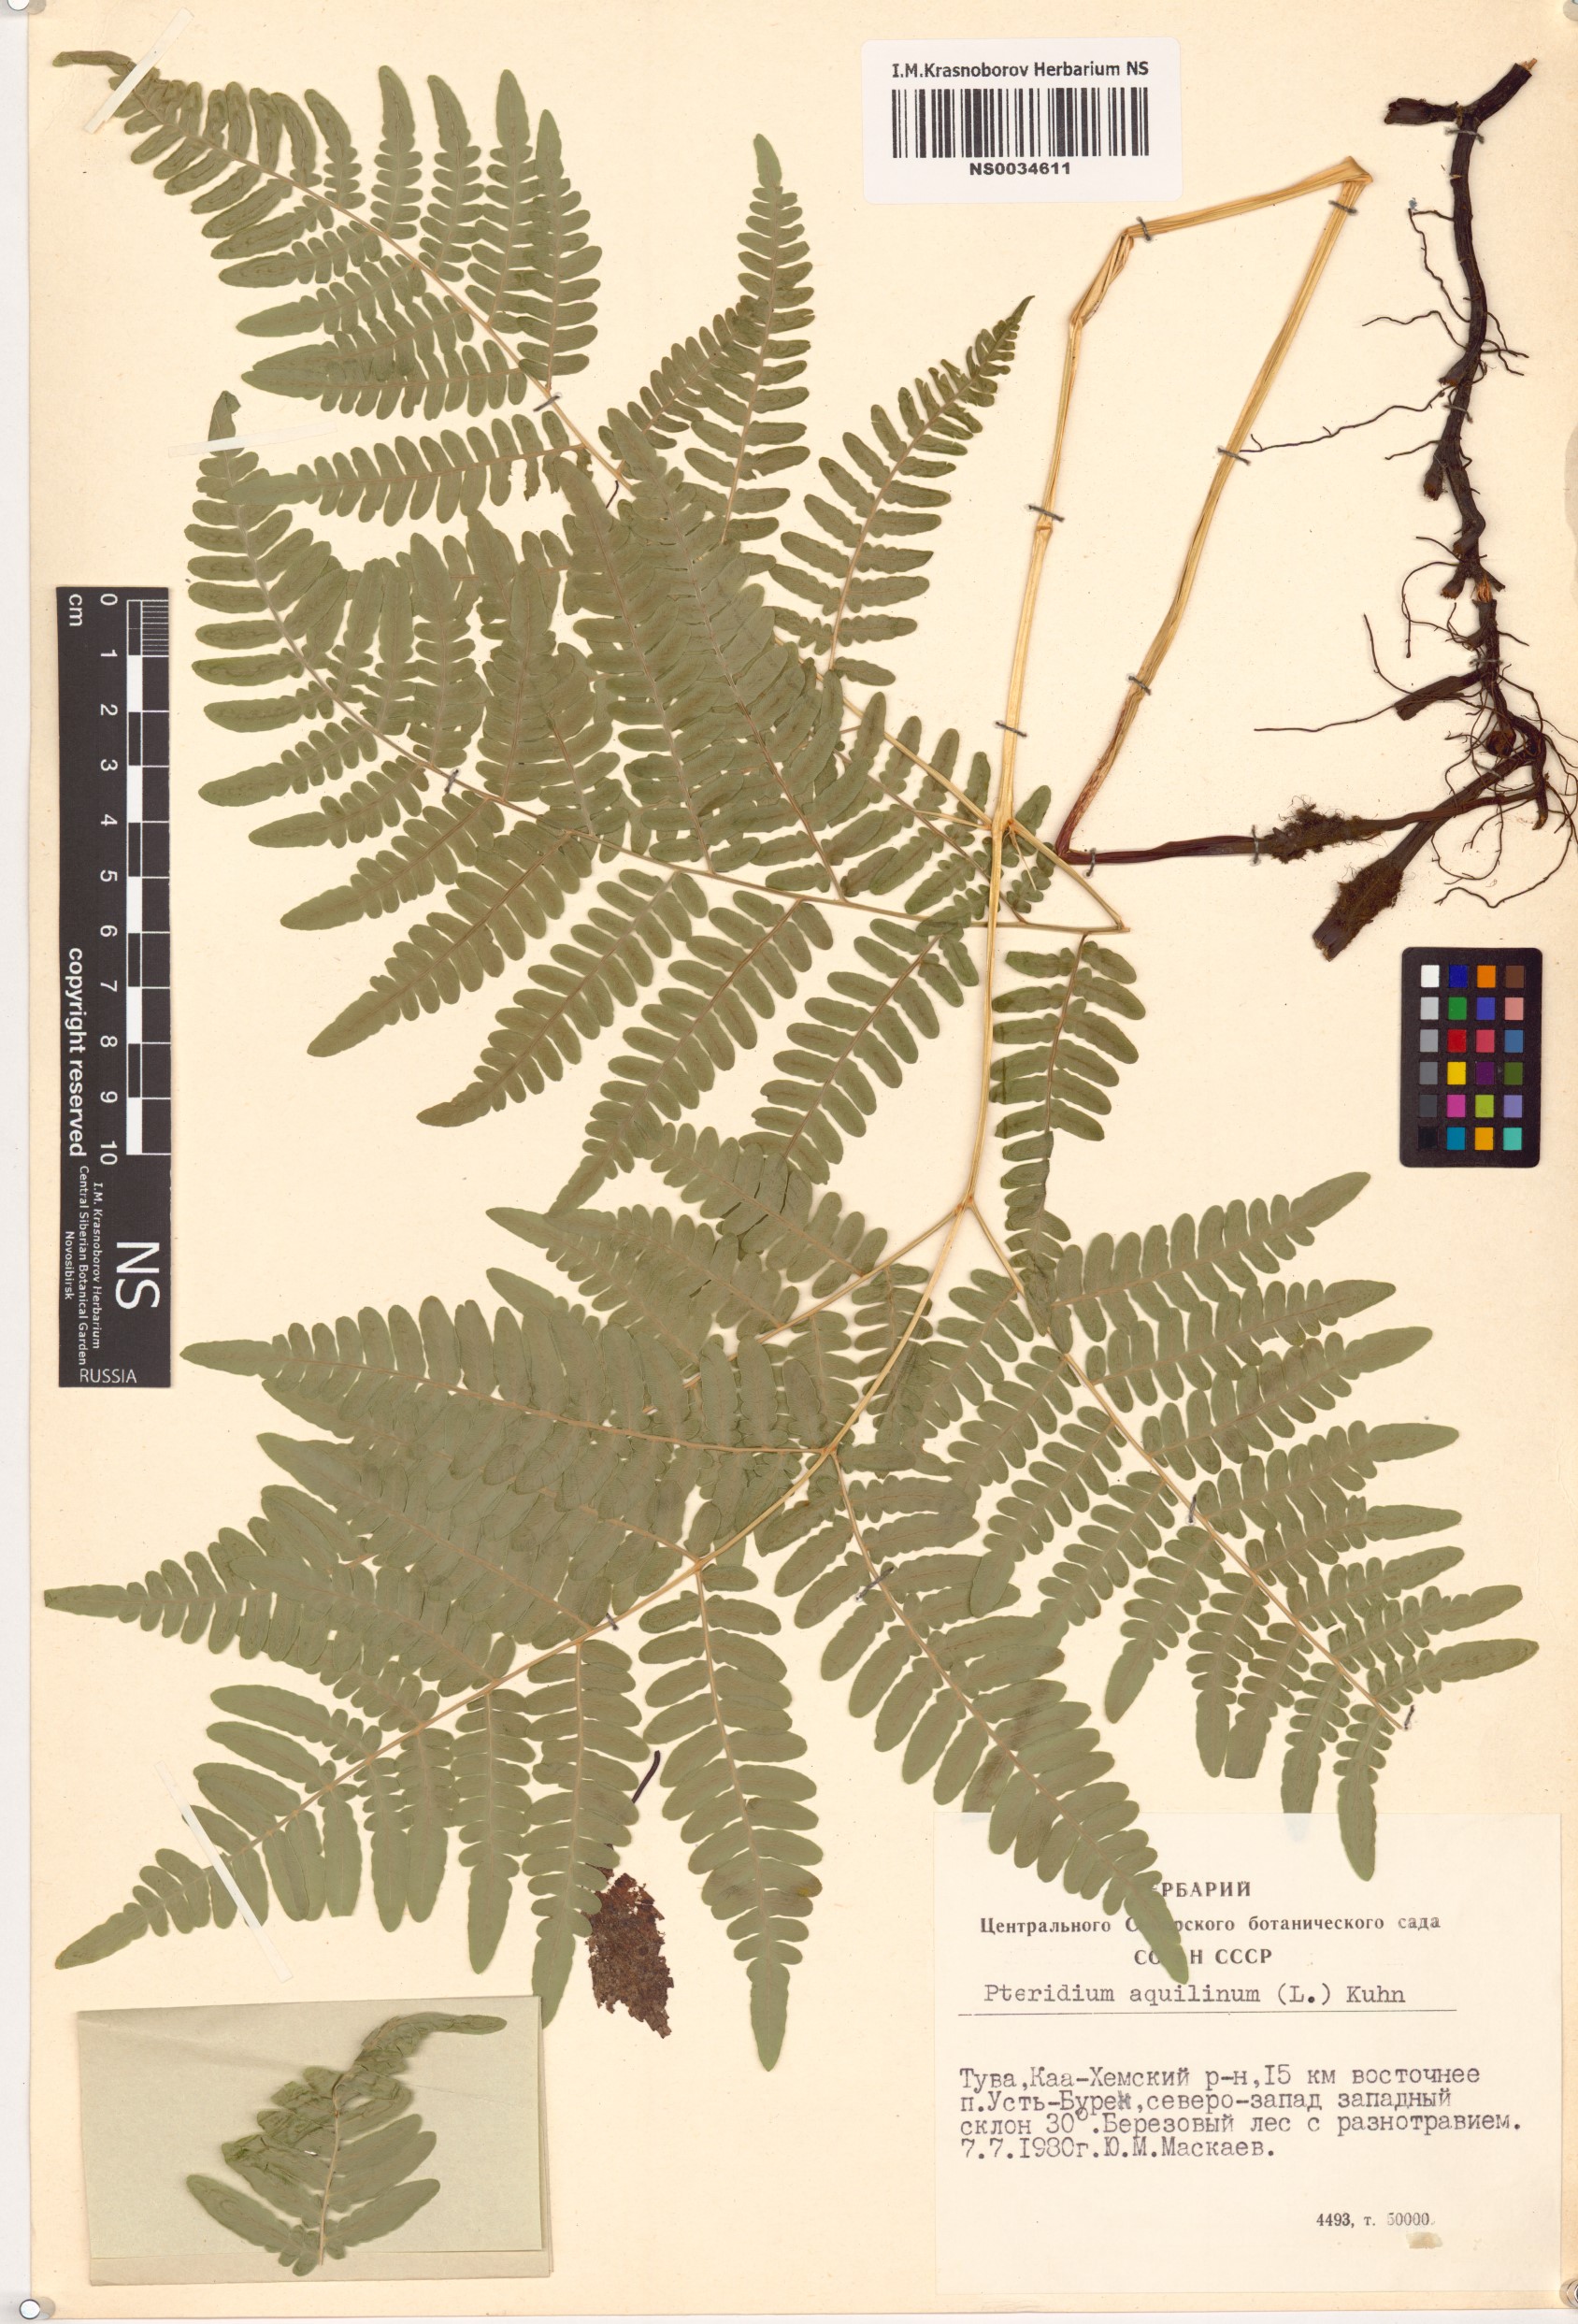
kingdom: Plantae
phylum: Tracheophyta
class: Polypodiopsida
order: Polypodiales
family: Dennstaedtiaceae
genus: Pteridium
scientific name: Pteridium aquilinum
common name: Bracken
